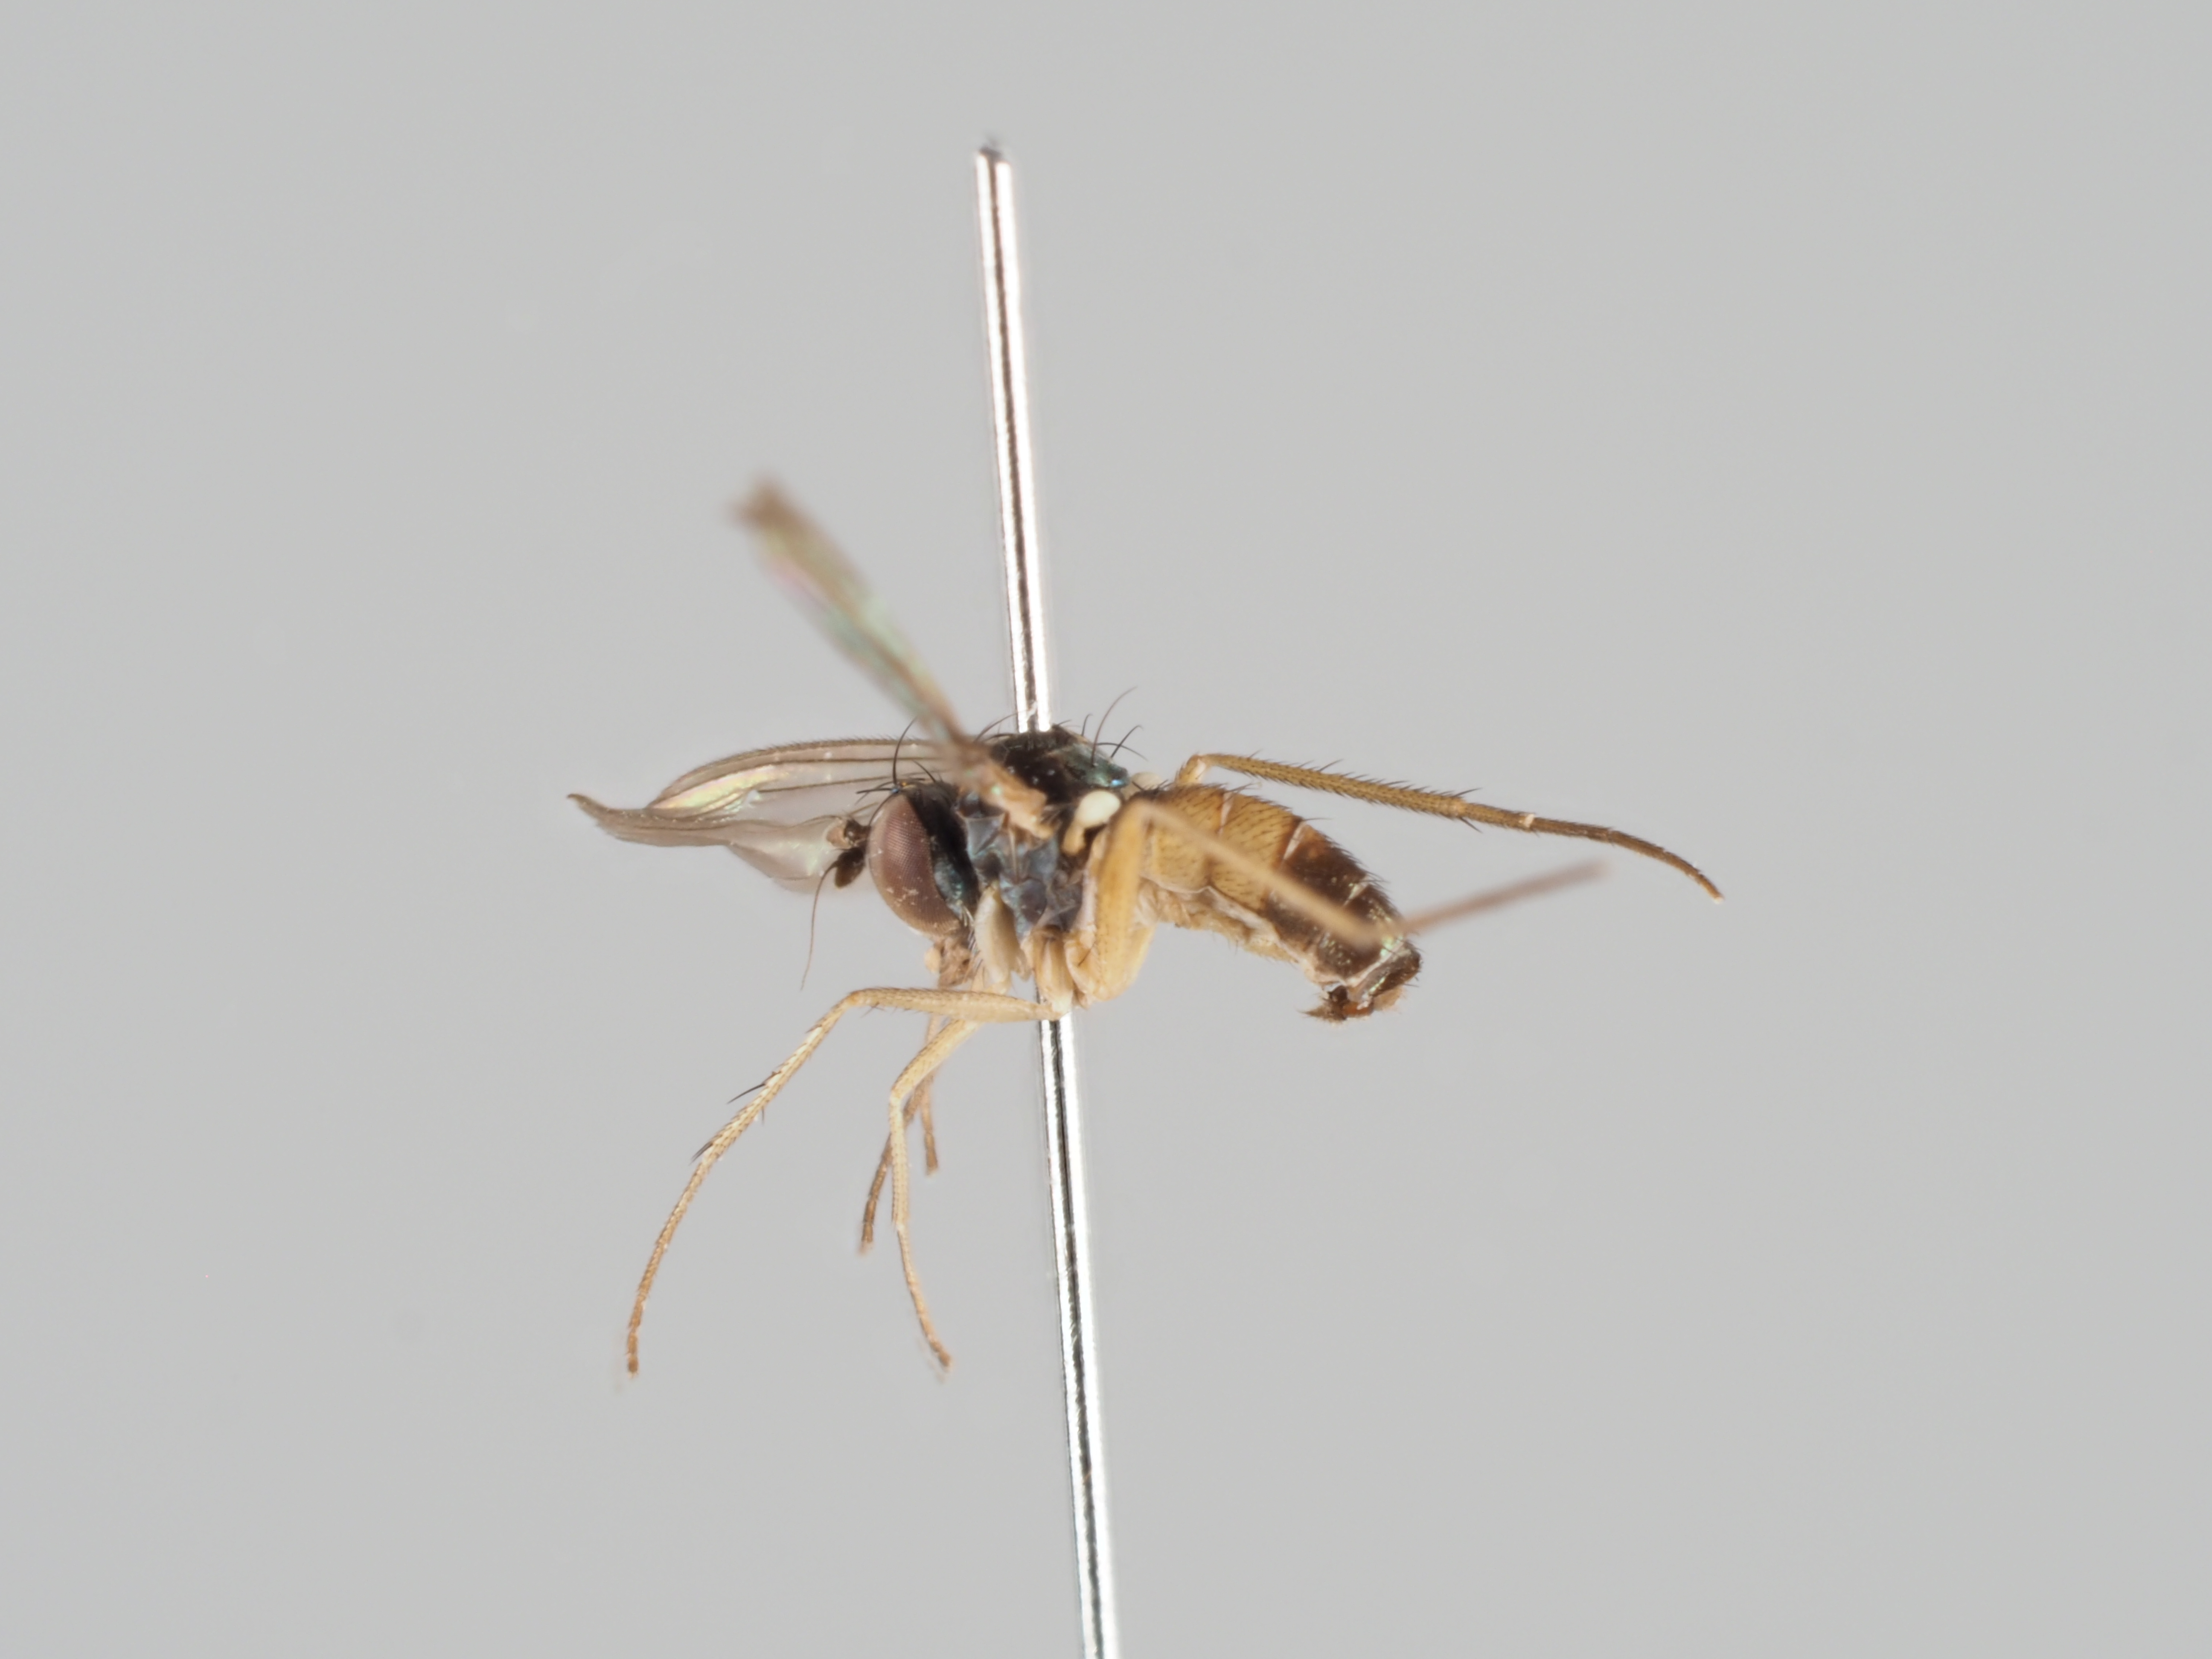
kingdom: Animalia
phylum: Arthropoda
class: Insecta
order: Diptera
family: Dolichopodidae
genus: Lamprochromus
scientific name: Lamprochromus semiflavus
